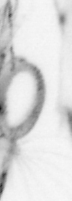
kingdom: Animalia
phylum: Annelida
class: Polychaeta
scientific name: Polychaeta
